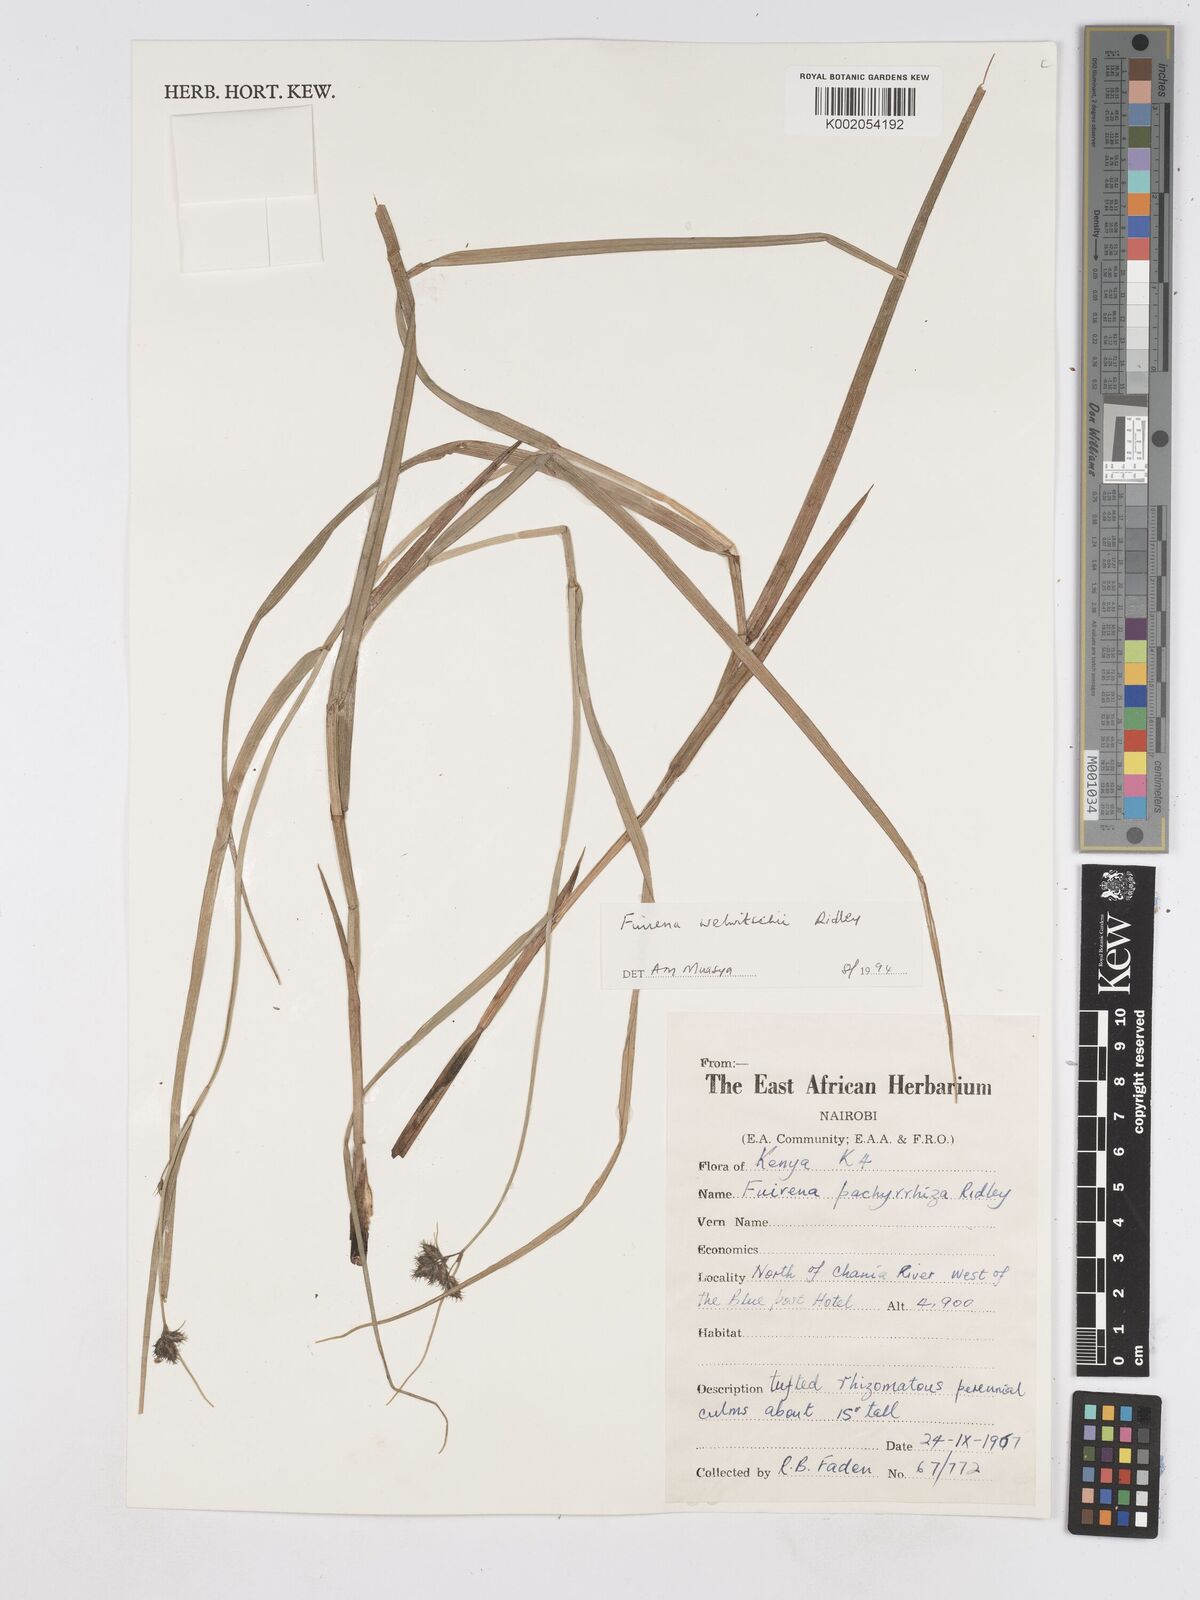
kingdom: Plantae
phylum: Tracheophyta
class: Liliopsida
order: Poales
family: Cyperaceae
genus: Fuirena
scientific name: Fuirena welwitschii
